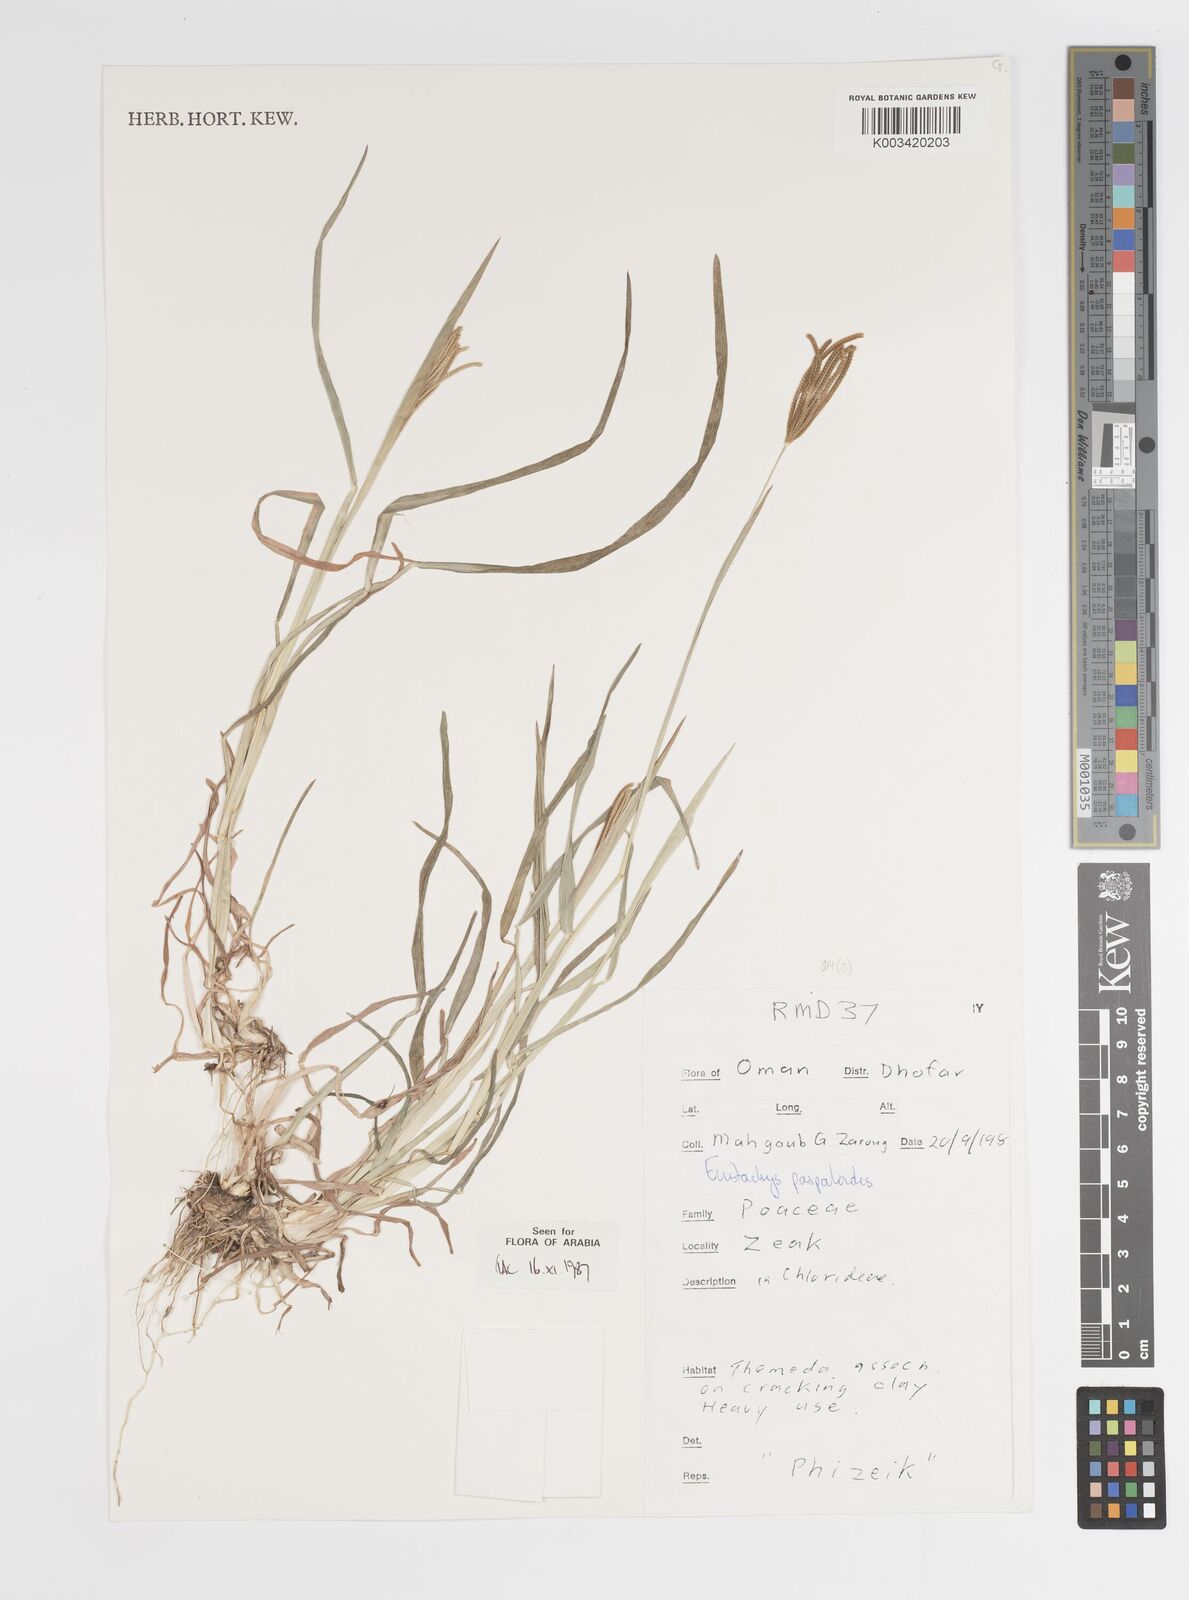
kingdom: Plantae
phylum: Tracheophyta
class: Liliopsida
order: Poales
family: Poaceae
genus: Eustachys
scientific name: Eustachys paspaloides
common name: Caribbean fingergrass
